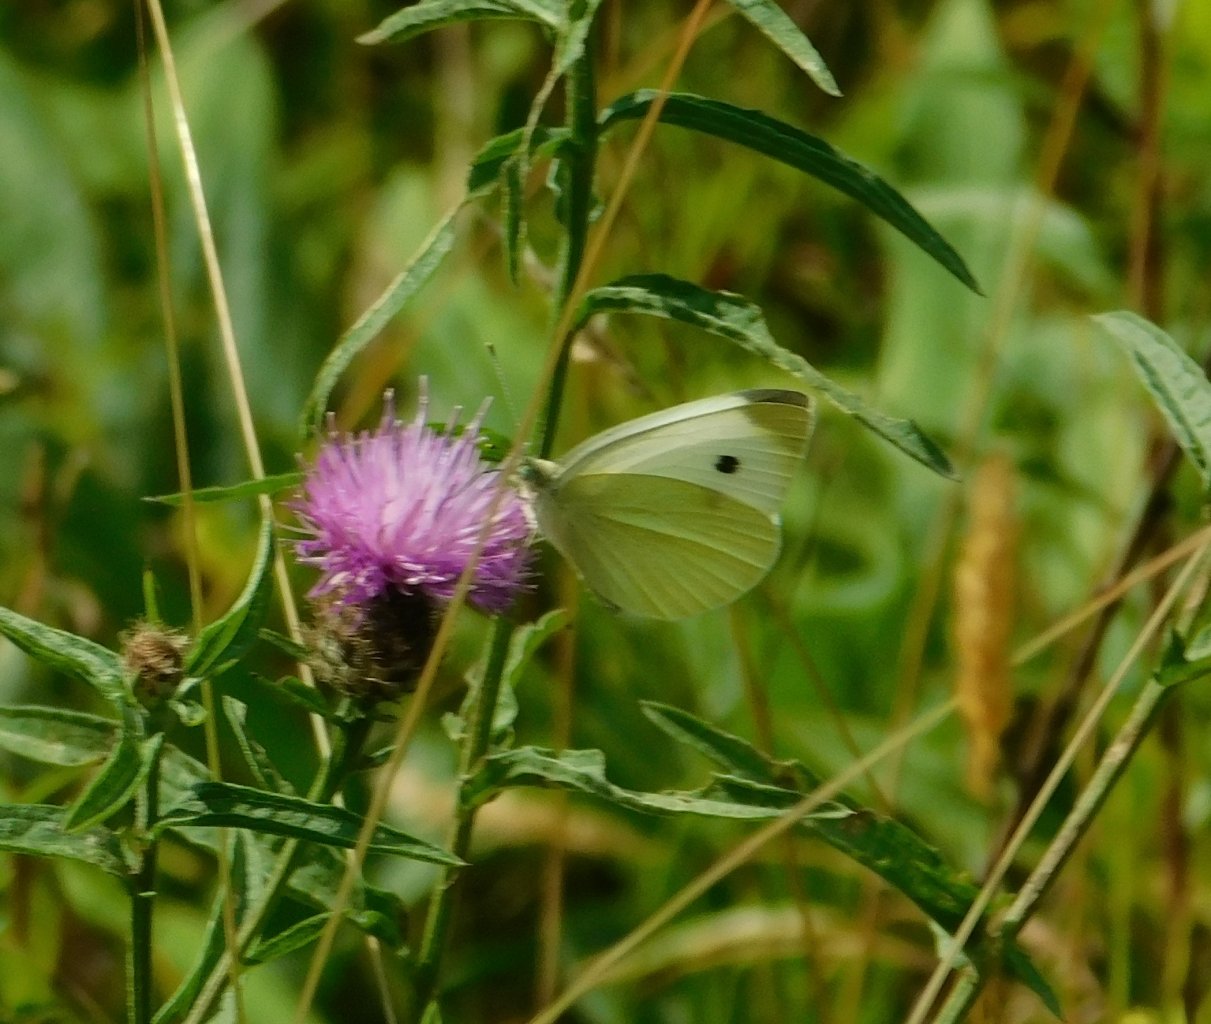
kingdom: Animalia
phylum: Arthropoda
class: Insecta
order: Lepidoptera
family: Pieridae
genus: Pieris
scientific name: Pieris rapae
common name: Cabbage White
